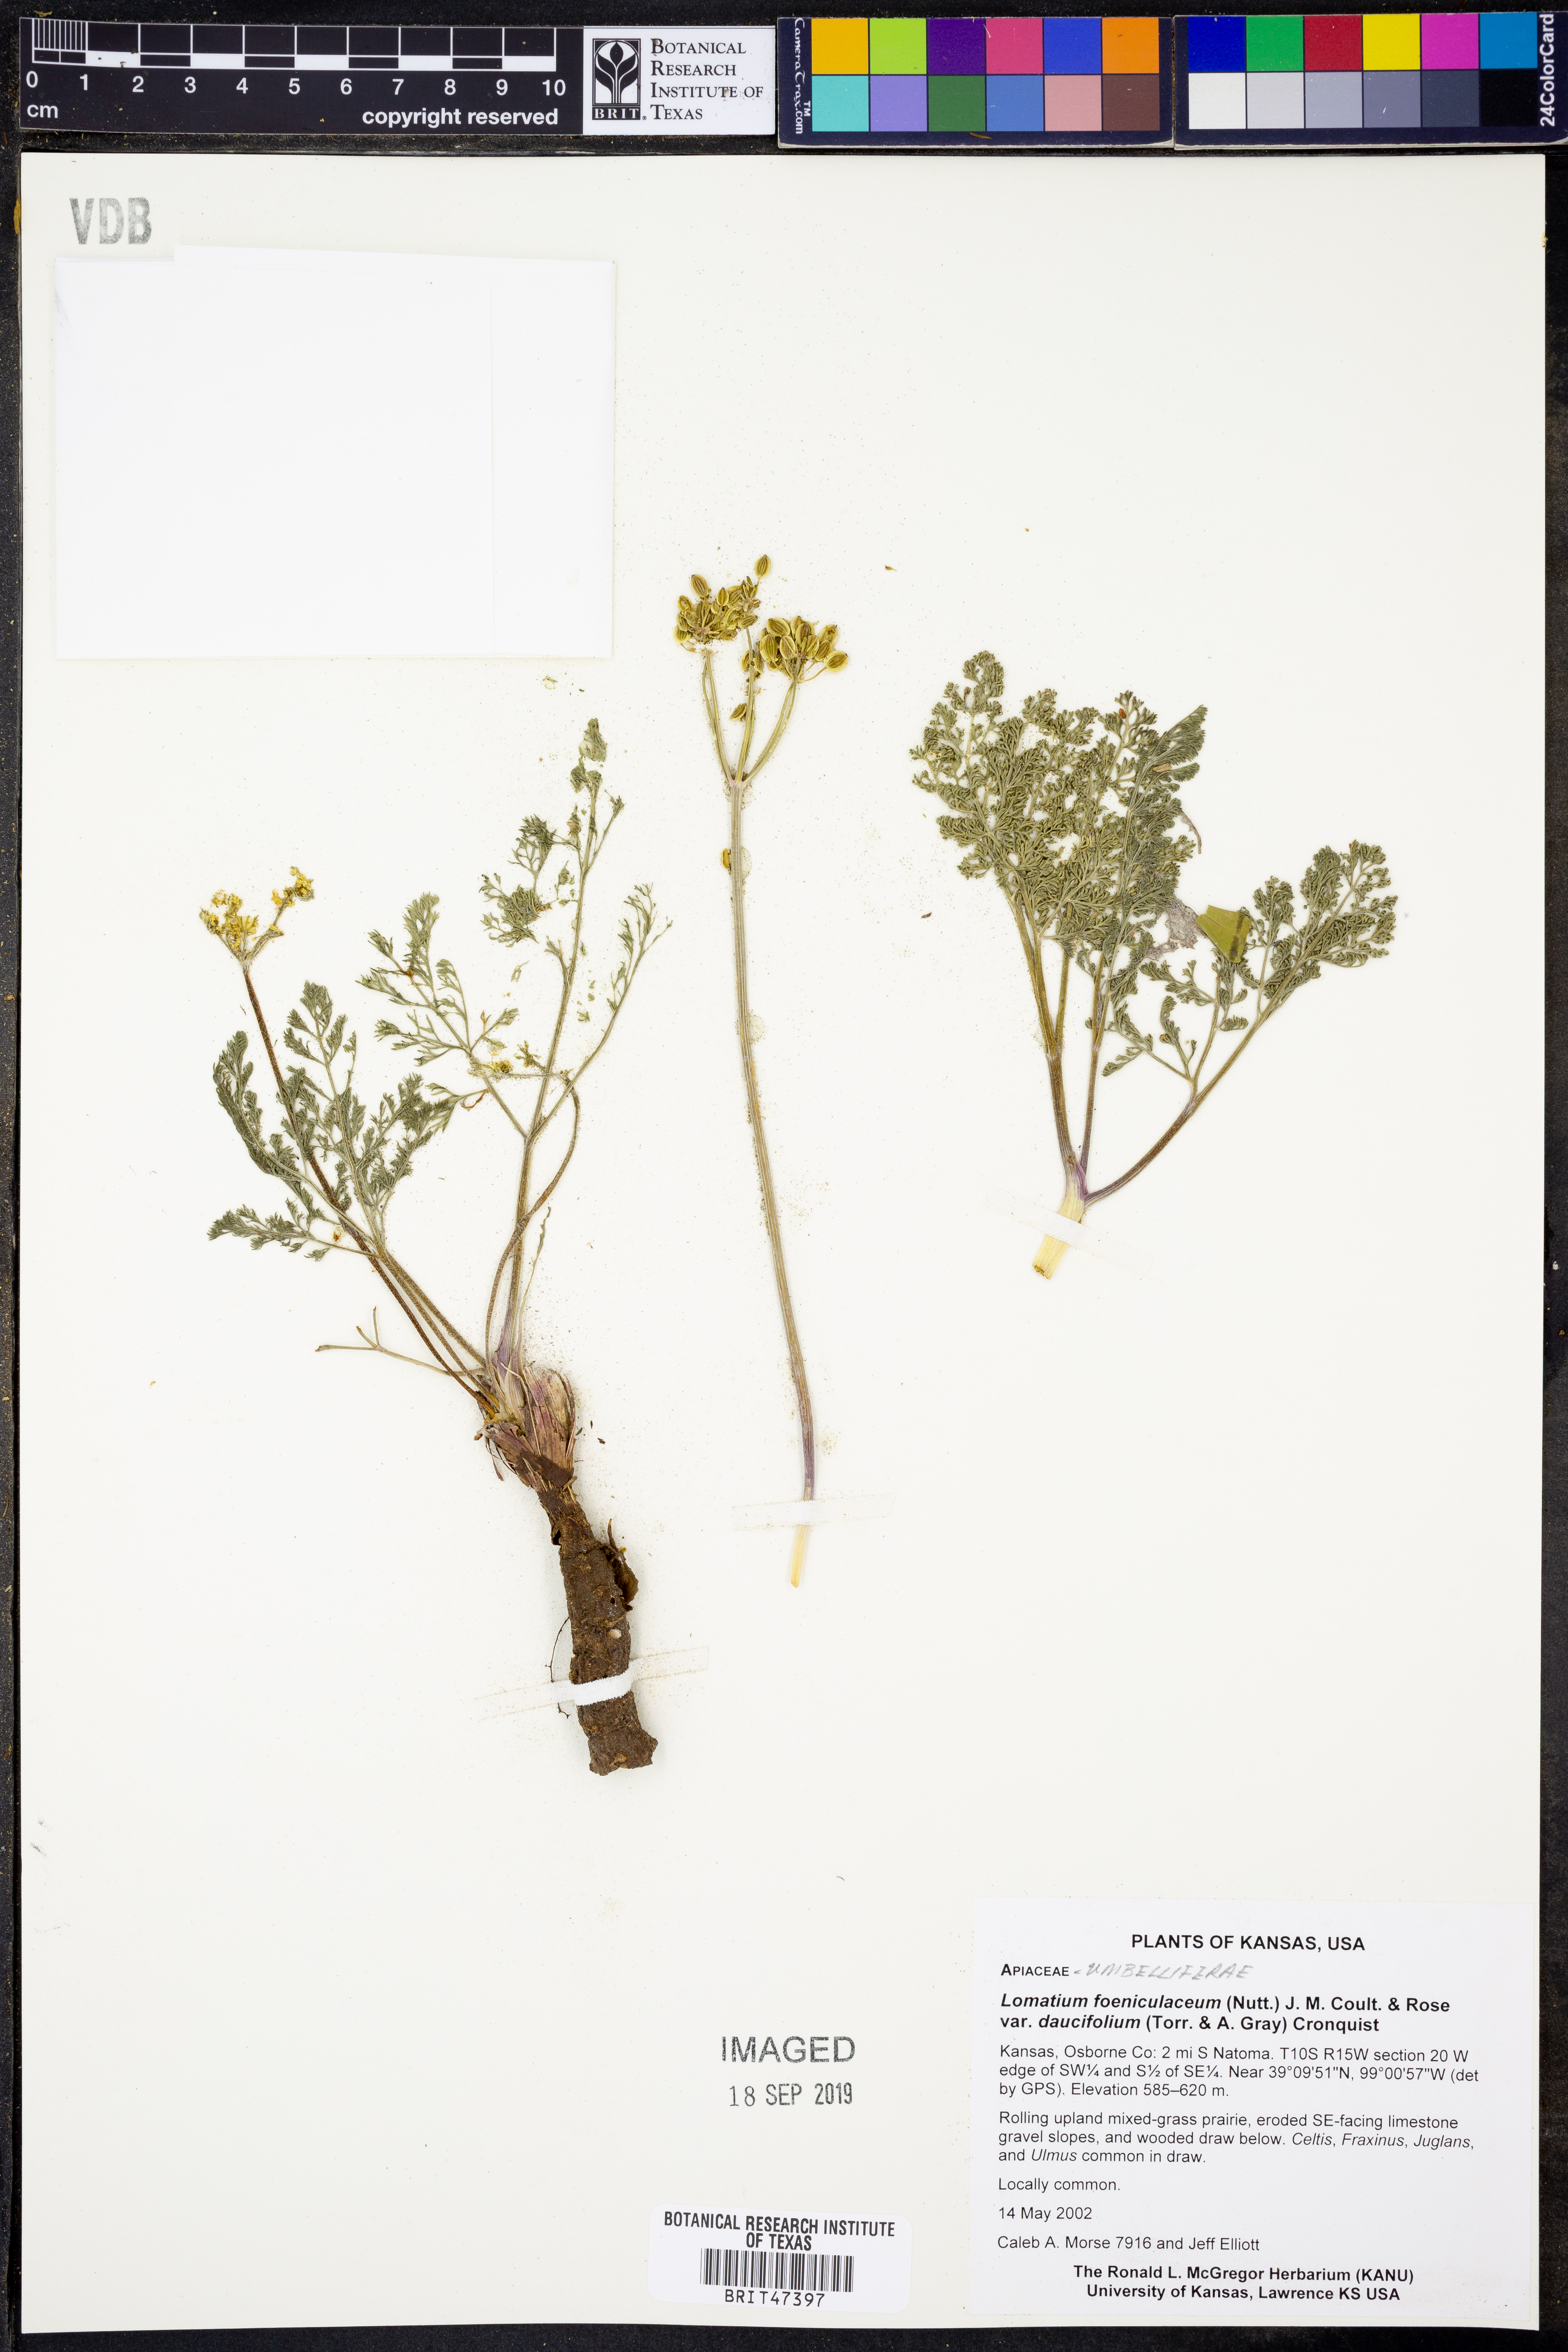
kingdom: Plantae
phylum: Tracheophyta
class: Magnoliopsida
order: Apiales
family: Apiaceae
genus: Lomatium
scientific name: Lomatium foeniculaceum
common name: Desert-parsley
